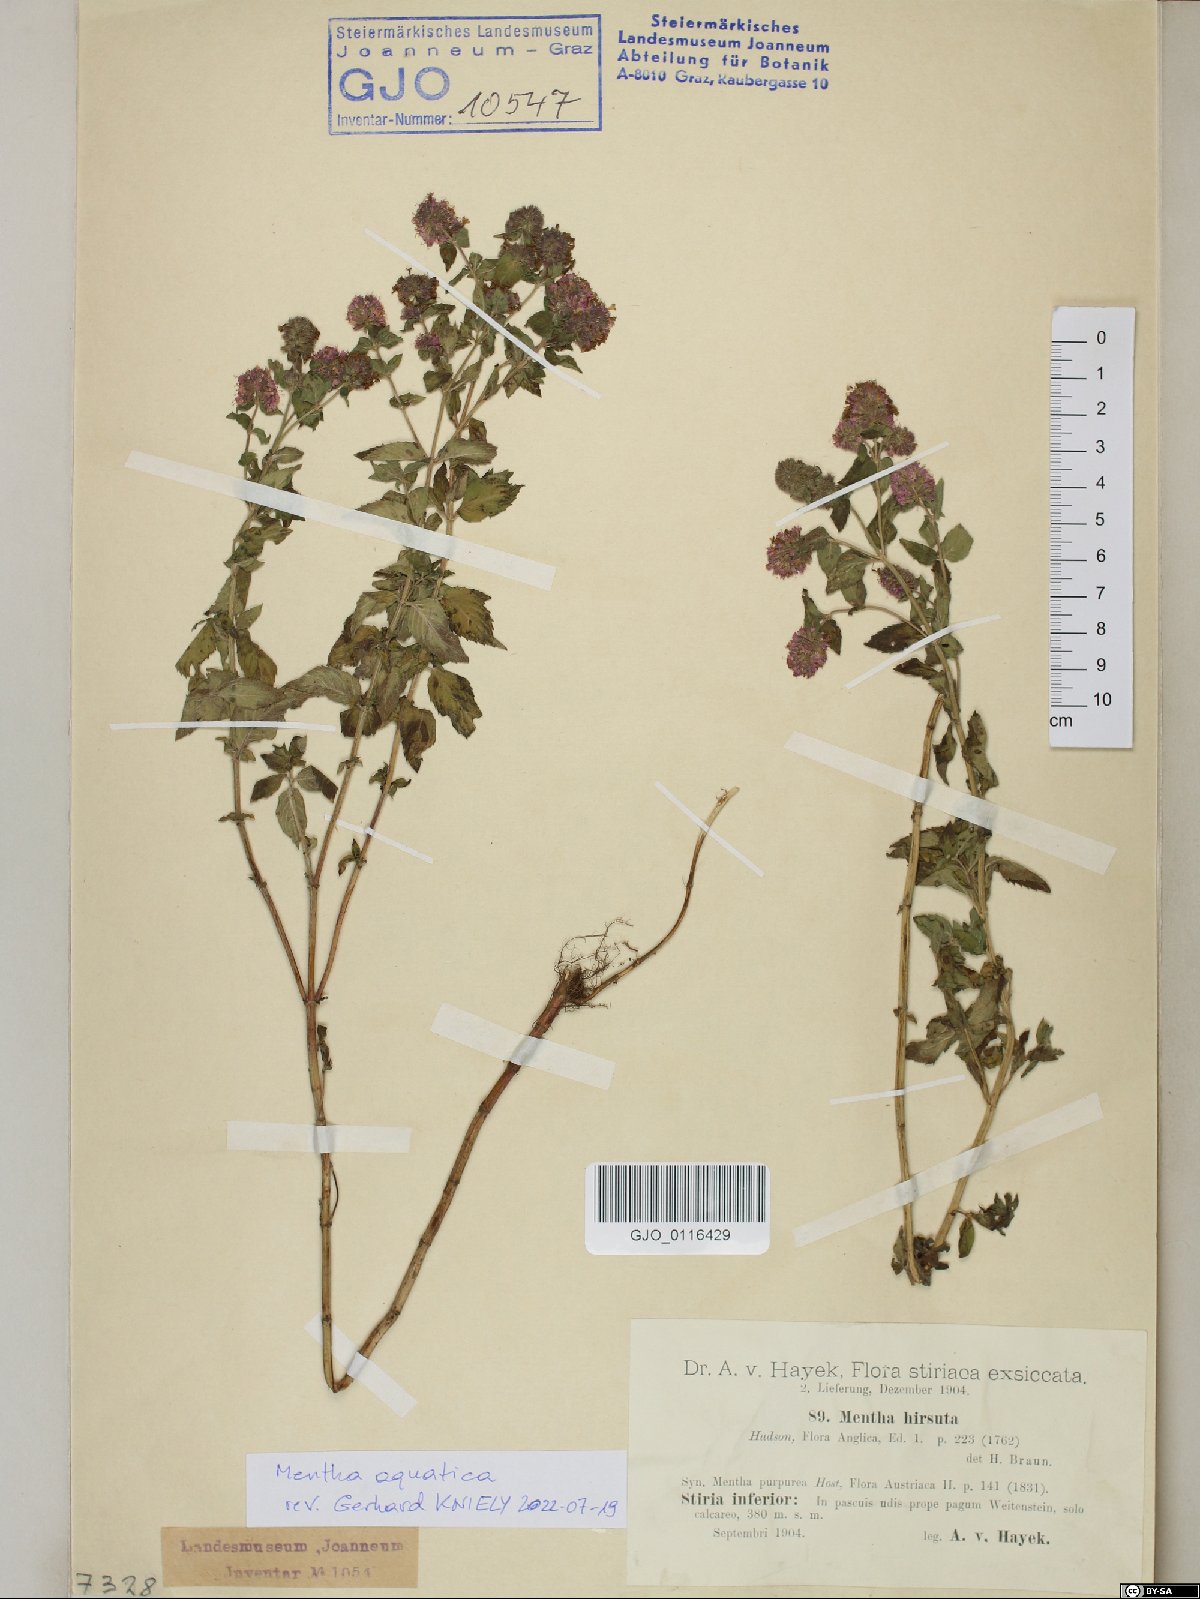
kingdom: Plantae
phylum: Tracheophyta
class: Magnoliopsida
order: Lamiales
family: Lamiaceae
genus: Mentha
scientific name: Mentha aquatica
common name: Water mint
